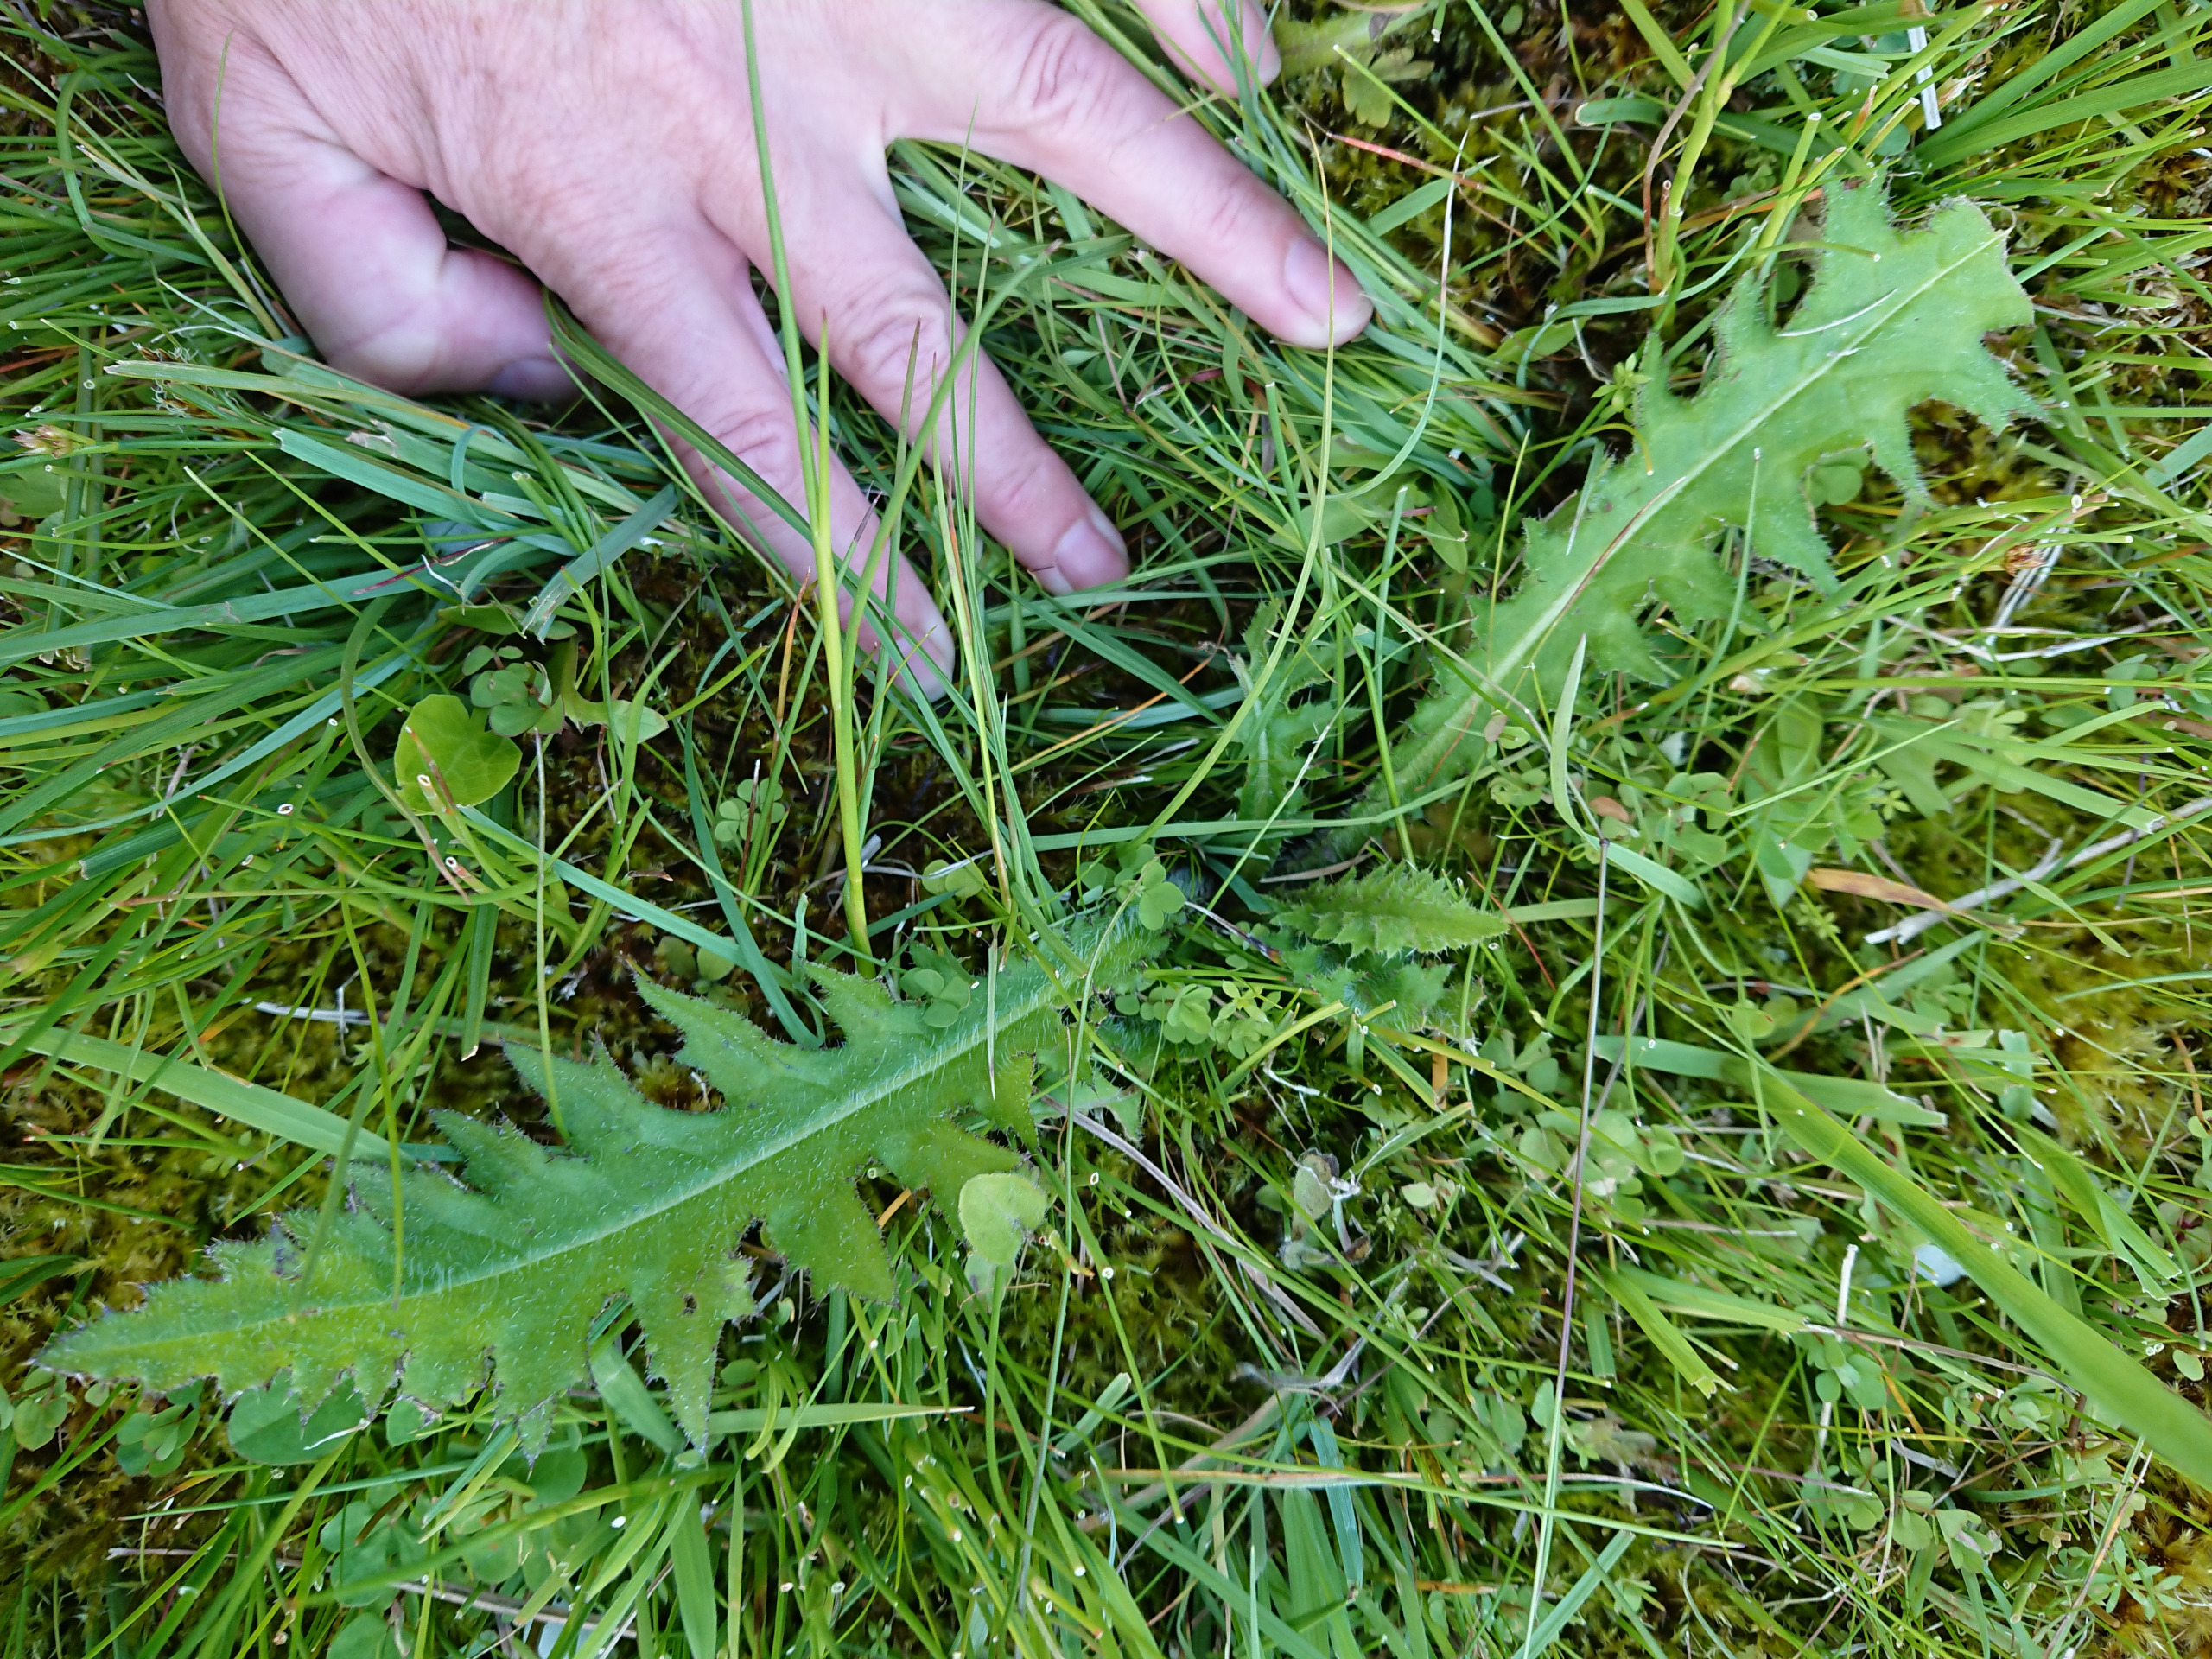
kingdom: Plantae
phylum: Tracheophyta
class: Magnoliopsida
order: Asterales
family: Asteraceae
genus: Cirsium
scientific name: Cirsium palustre
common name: Kær-tidsel
